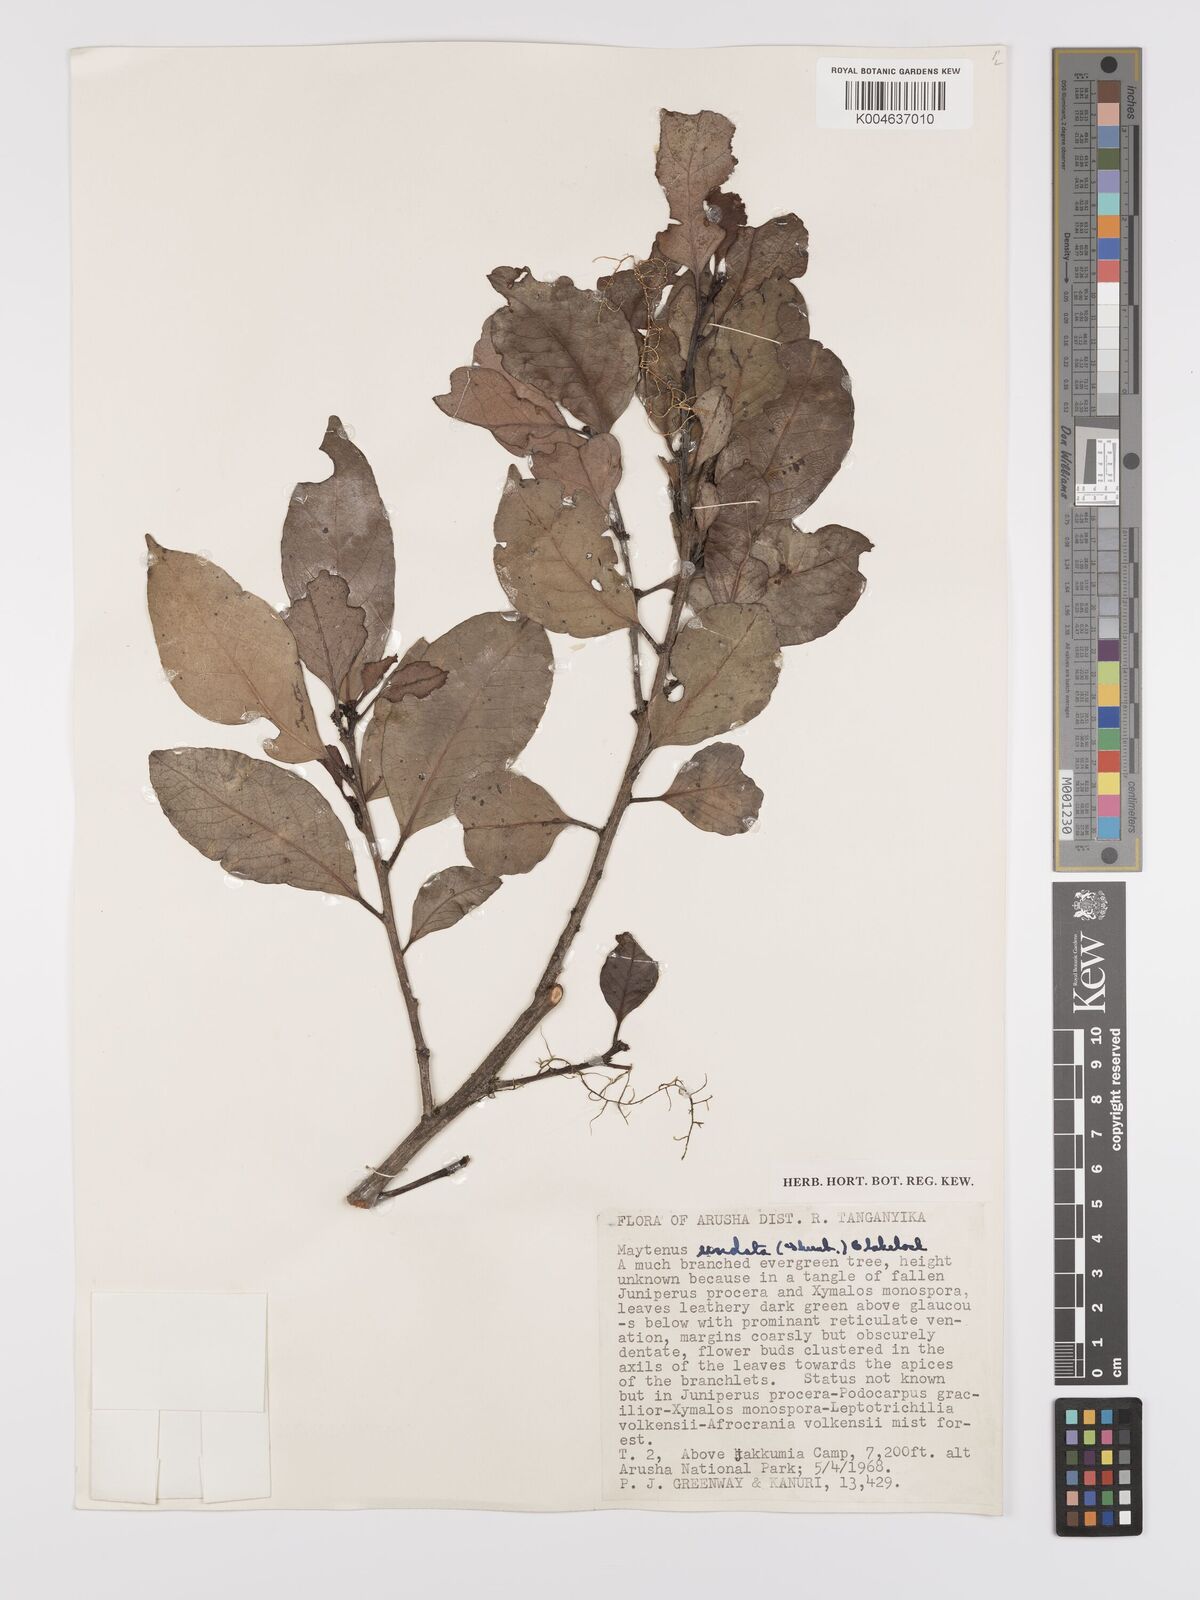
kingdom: Plantae
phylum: Tracheophyta
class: Magnoliopsida
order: Celastrales
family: Celastraceae
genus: Gymnosporia
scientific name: Gymnosporia undata
